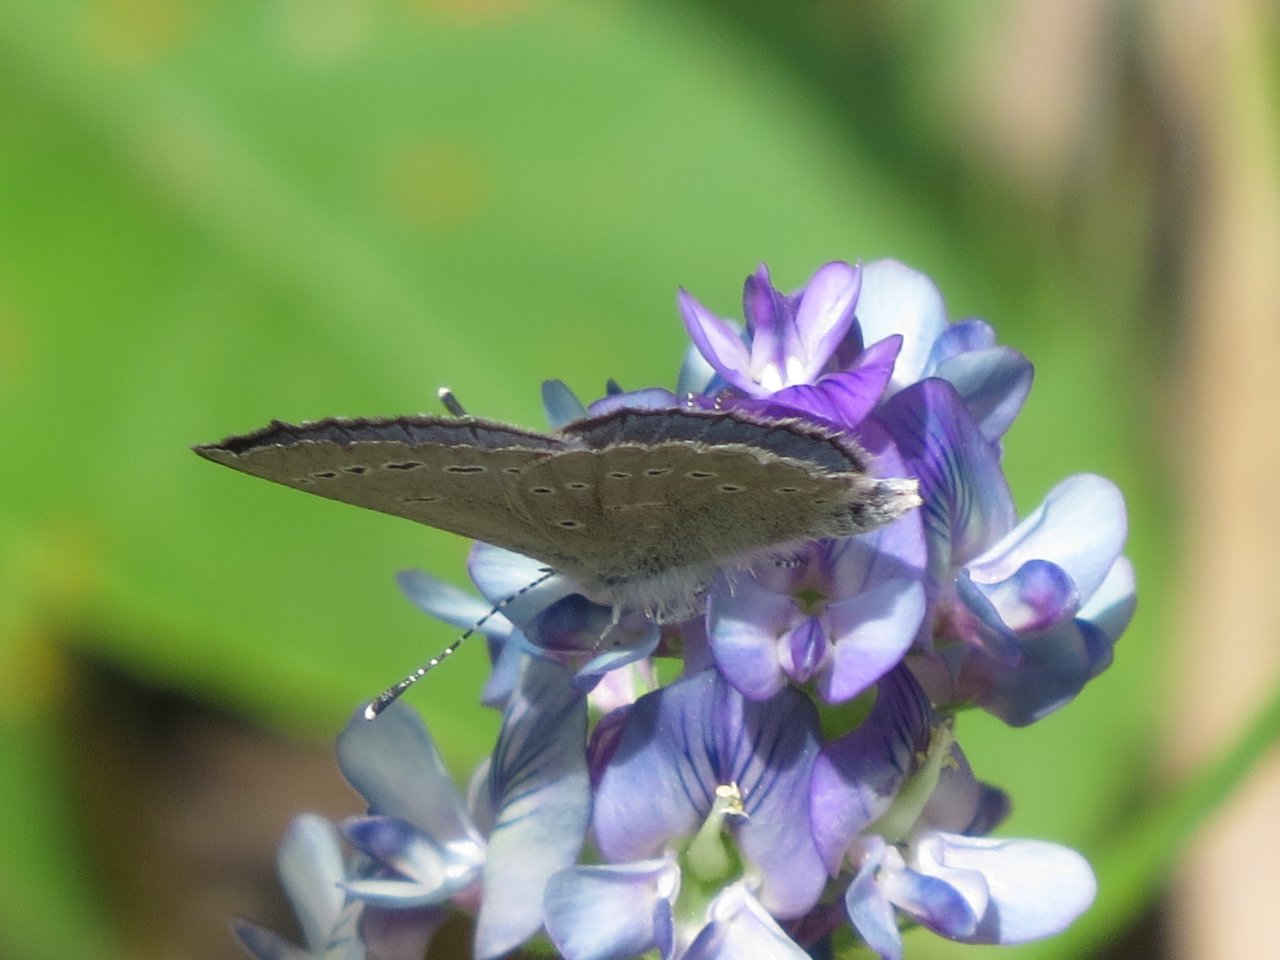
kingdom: Animalia
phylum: Arthropoda
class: Insecta
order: Lepidoptera
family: Lycaenidae
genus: Glaucopsyche
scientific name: Glaucopsyche lygdamus
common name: Silvery Blue
